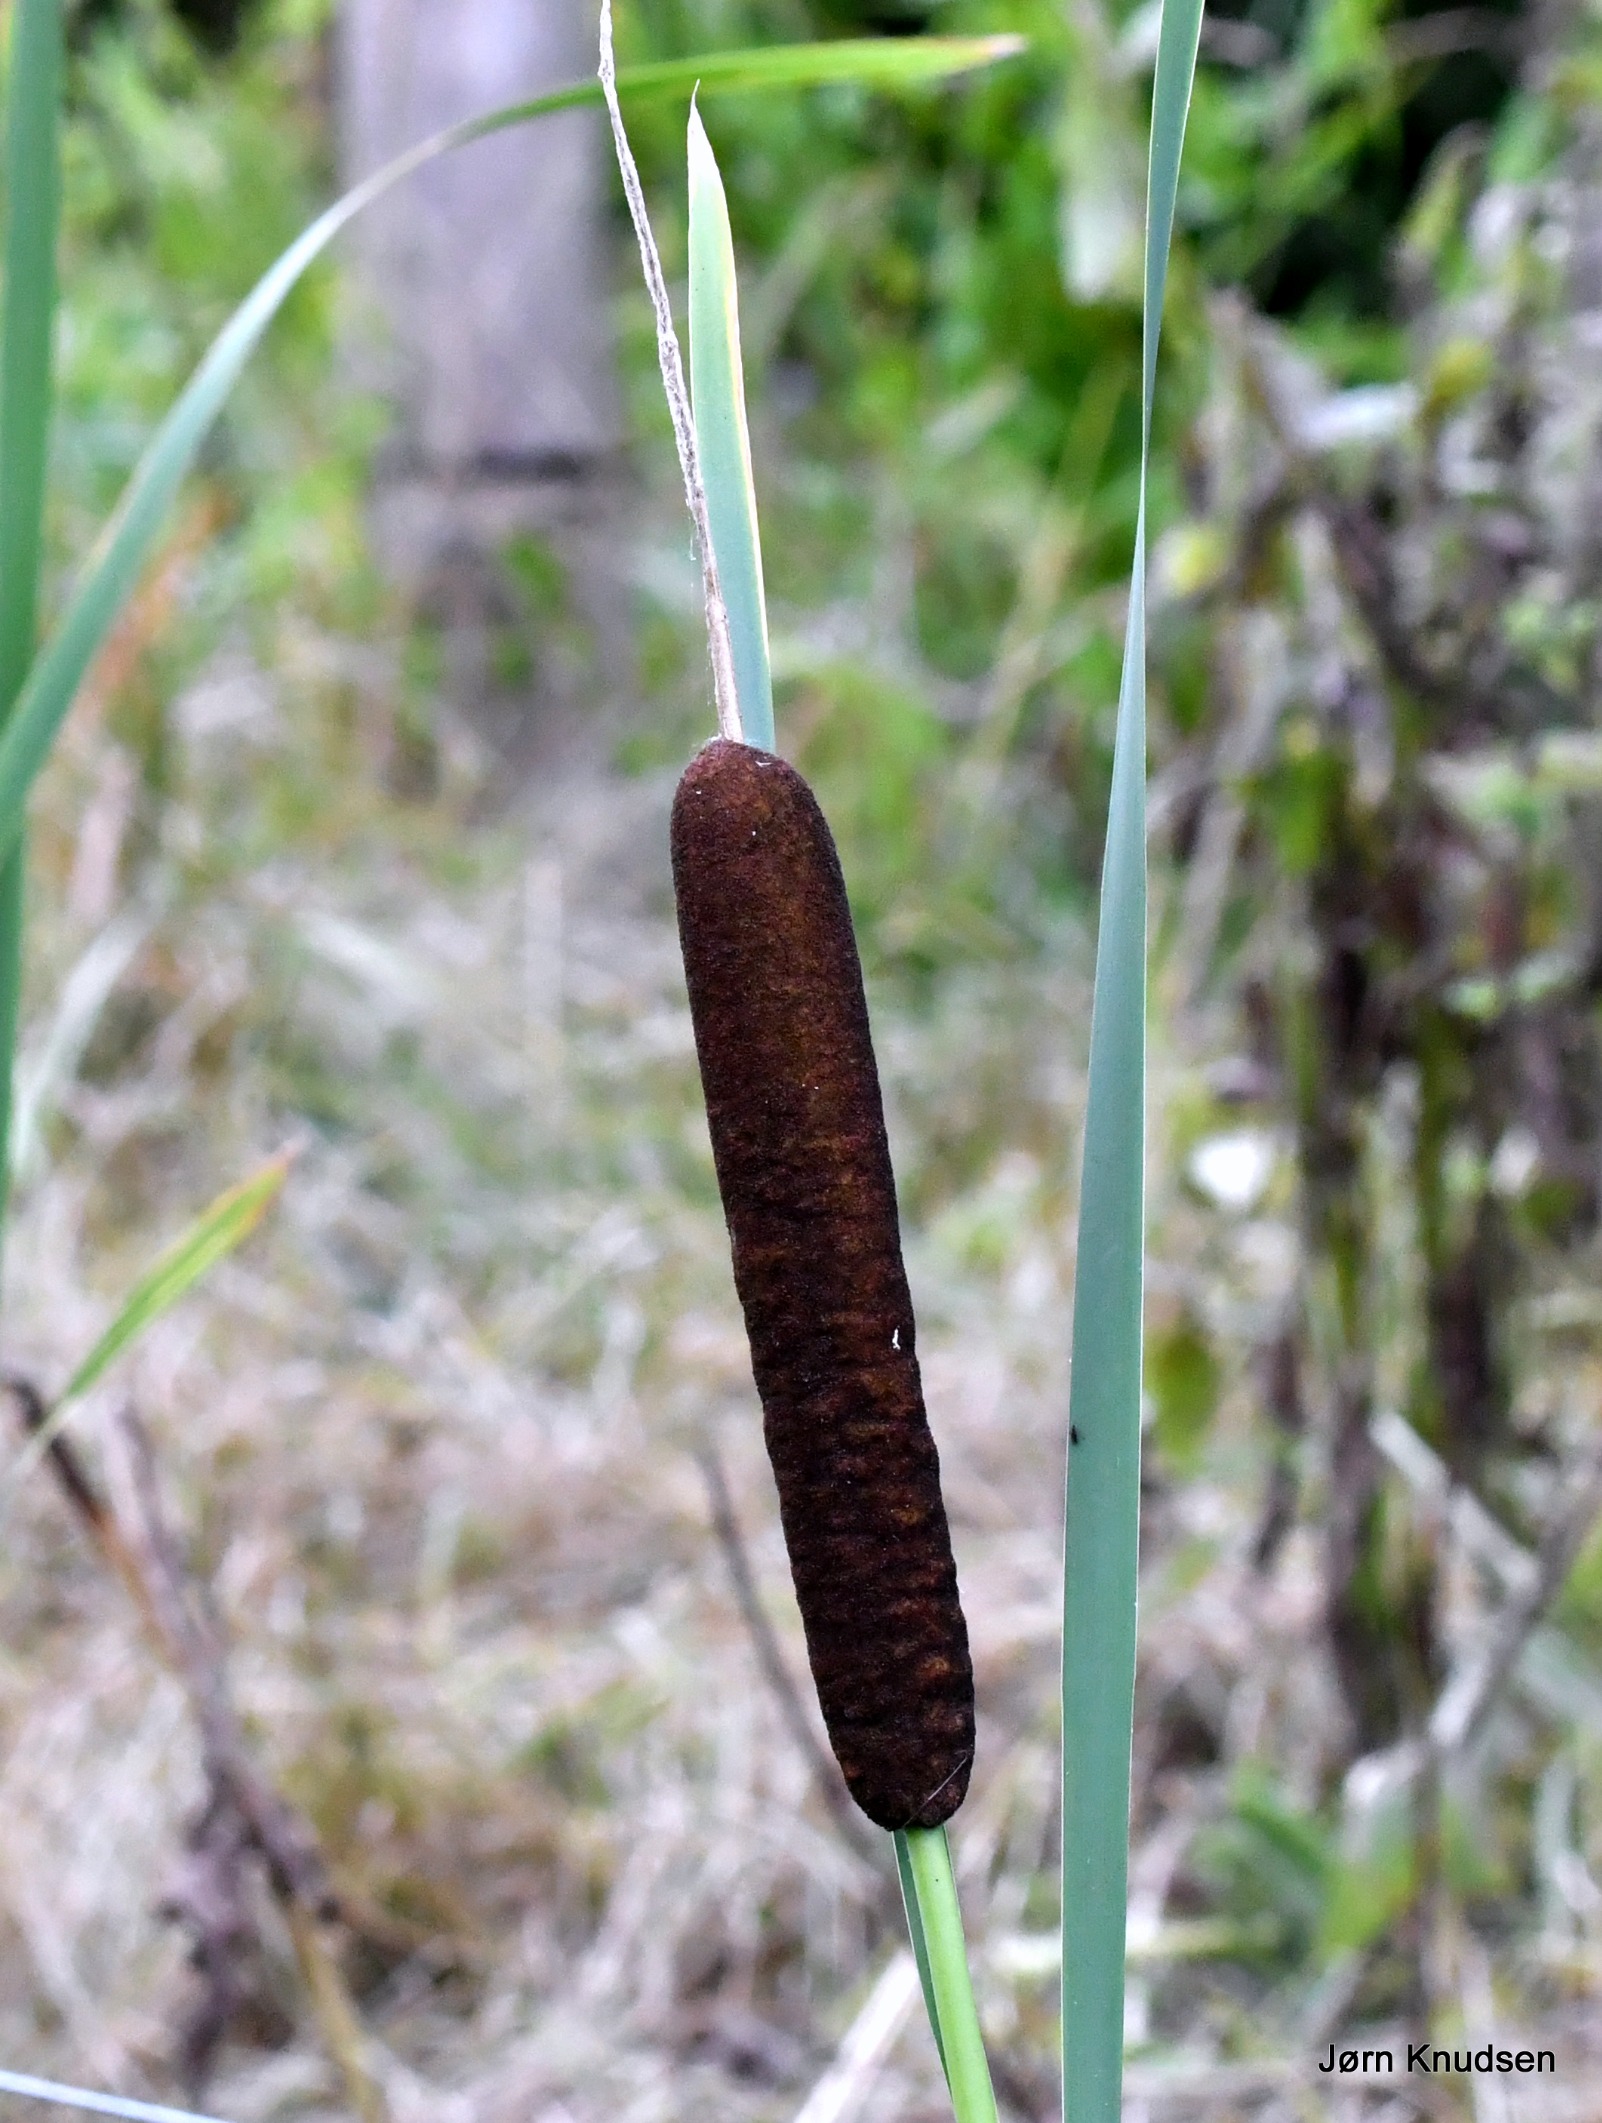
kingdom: Plantae
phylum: Tracheophyta
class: Liliopsida
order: Poales
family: Typhaceae
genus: Typha
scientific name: Typha latifolia
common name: Bredbladet dunhammer
